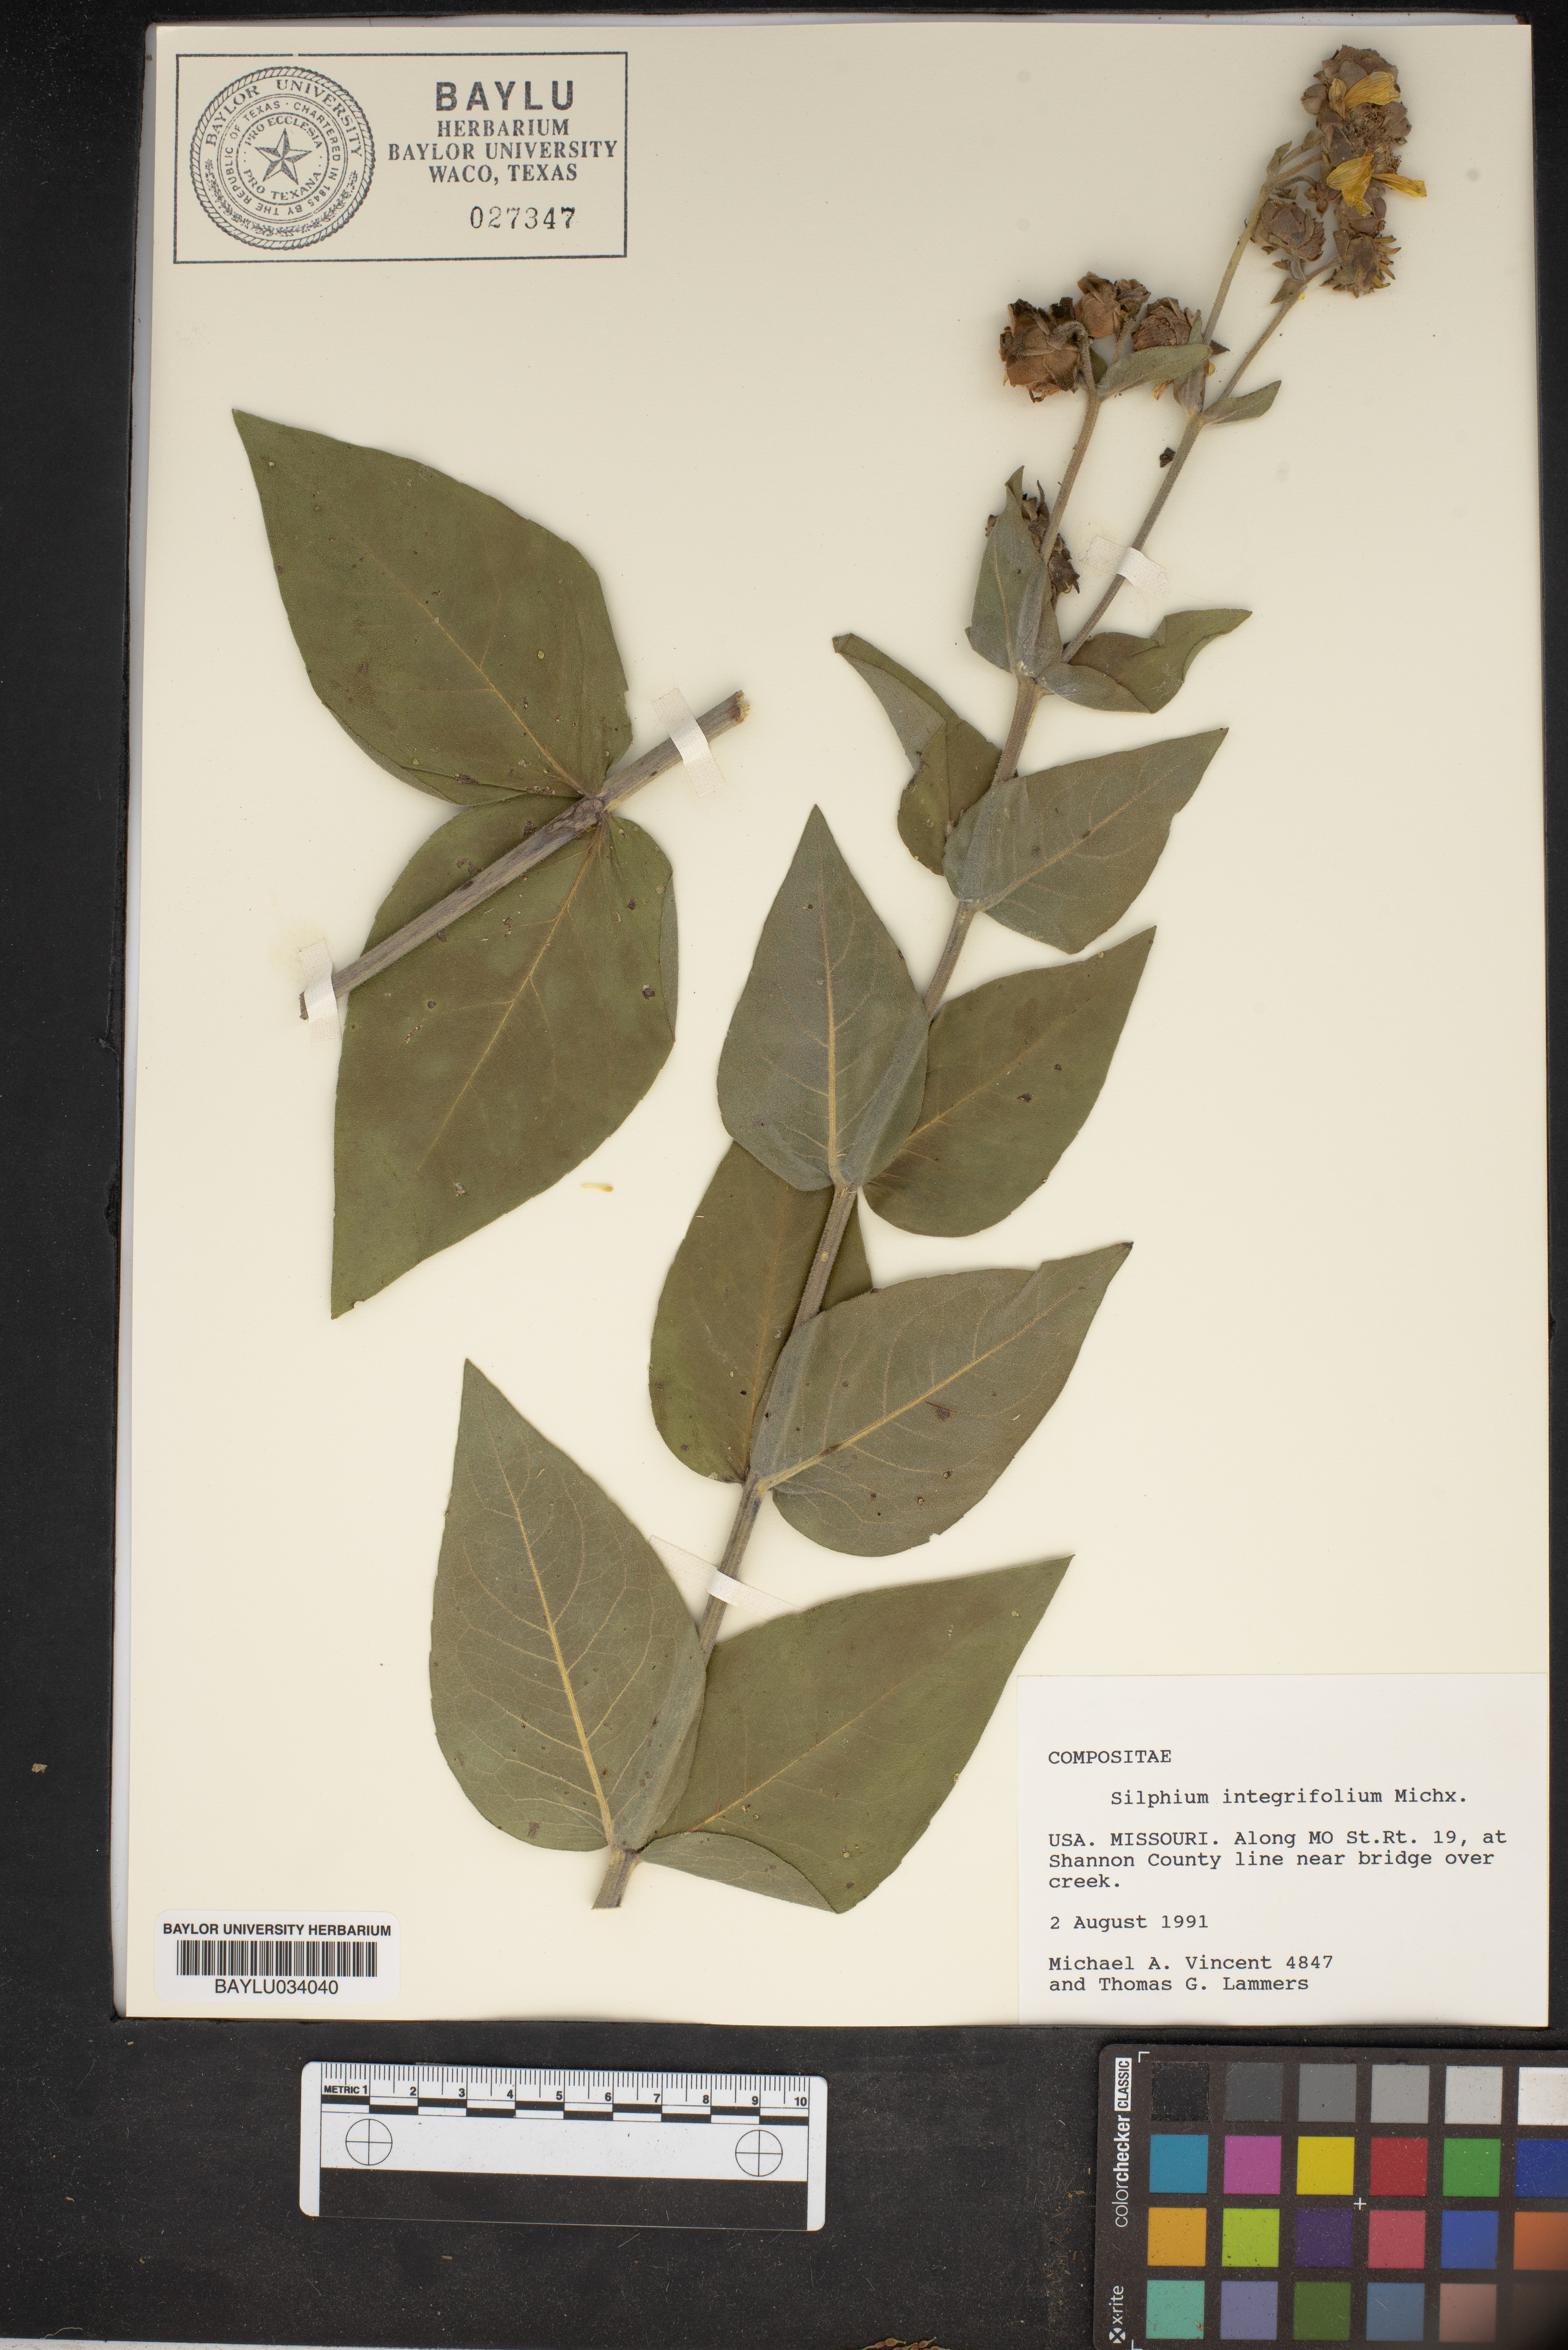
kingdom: Plantae
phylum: Tracheophyta
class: Magnoliopsida
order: Asterales
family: Asteraceae
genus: Silphium
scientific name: Silphium integrifolium
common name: Whole-leaf rosinweed
